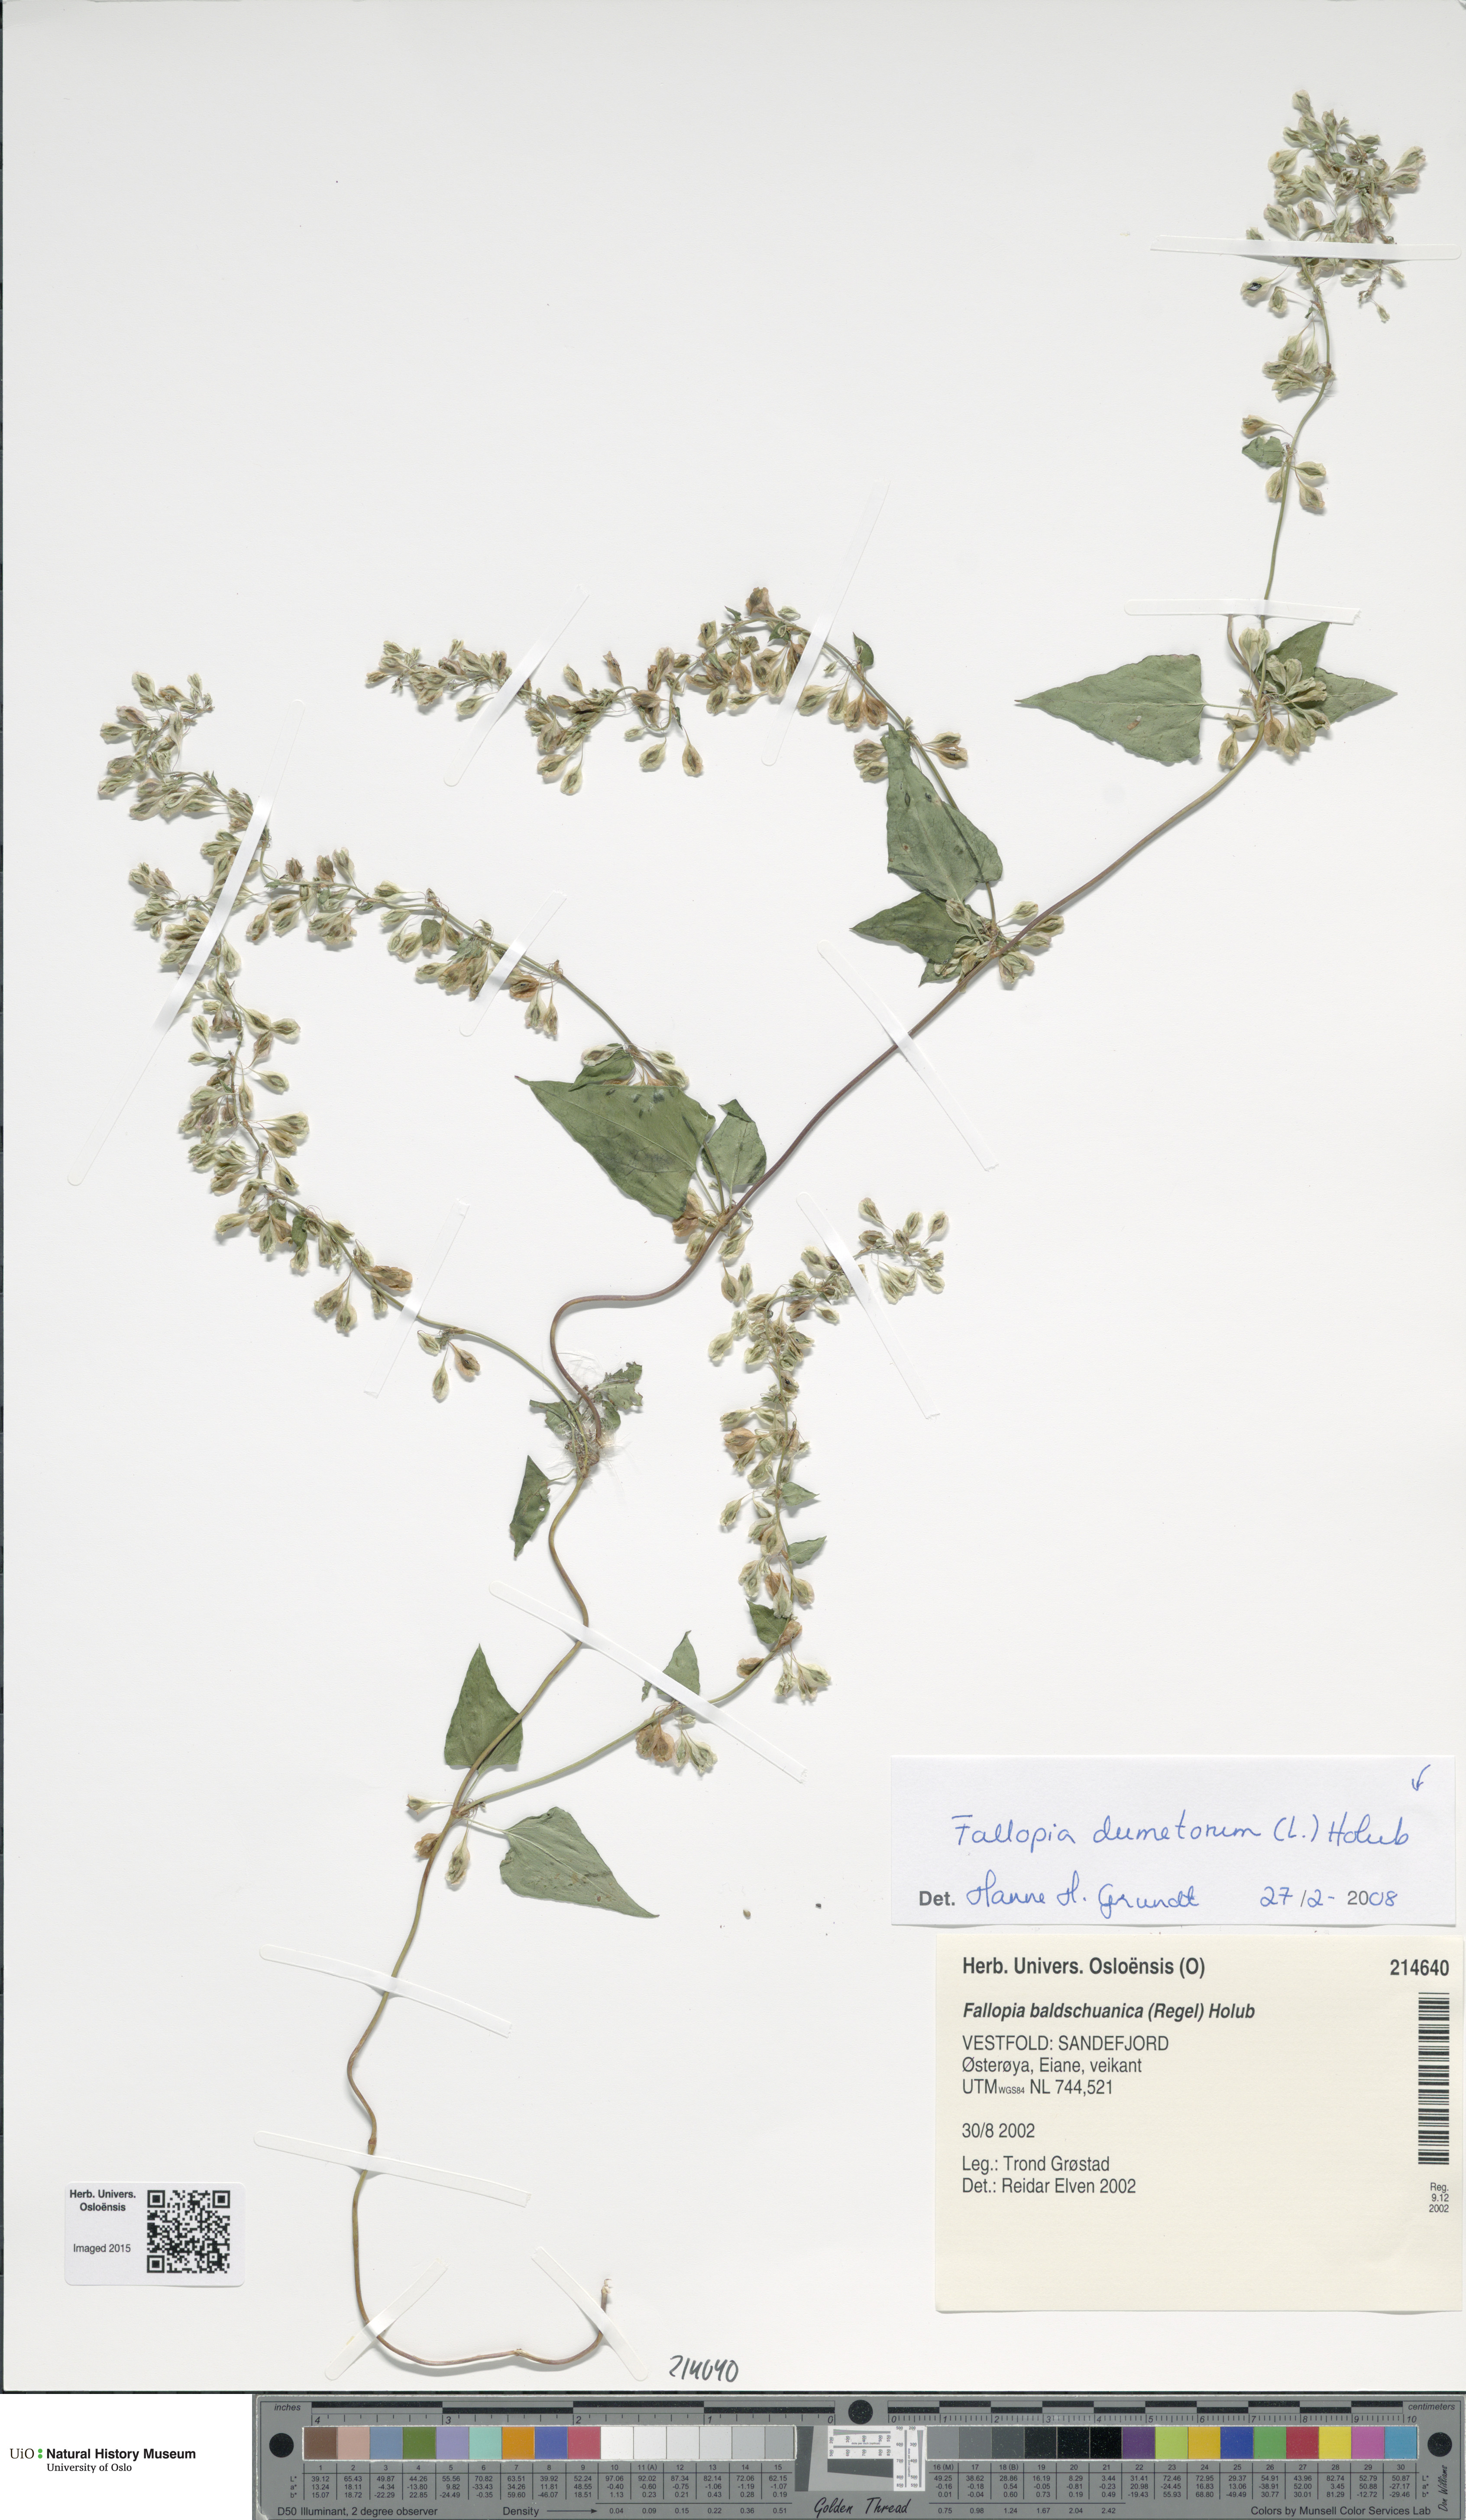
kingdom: Plantae
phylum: Tracheophyta
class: Magnoliopsida
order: Caryophyllales
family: Polygonaceae
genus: Fallopia
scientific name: Fallopia dumetorum
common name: Copse-bindweed
